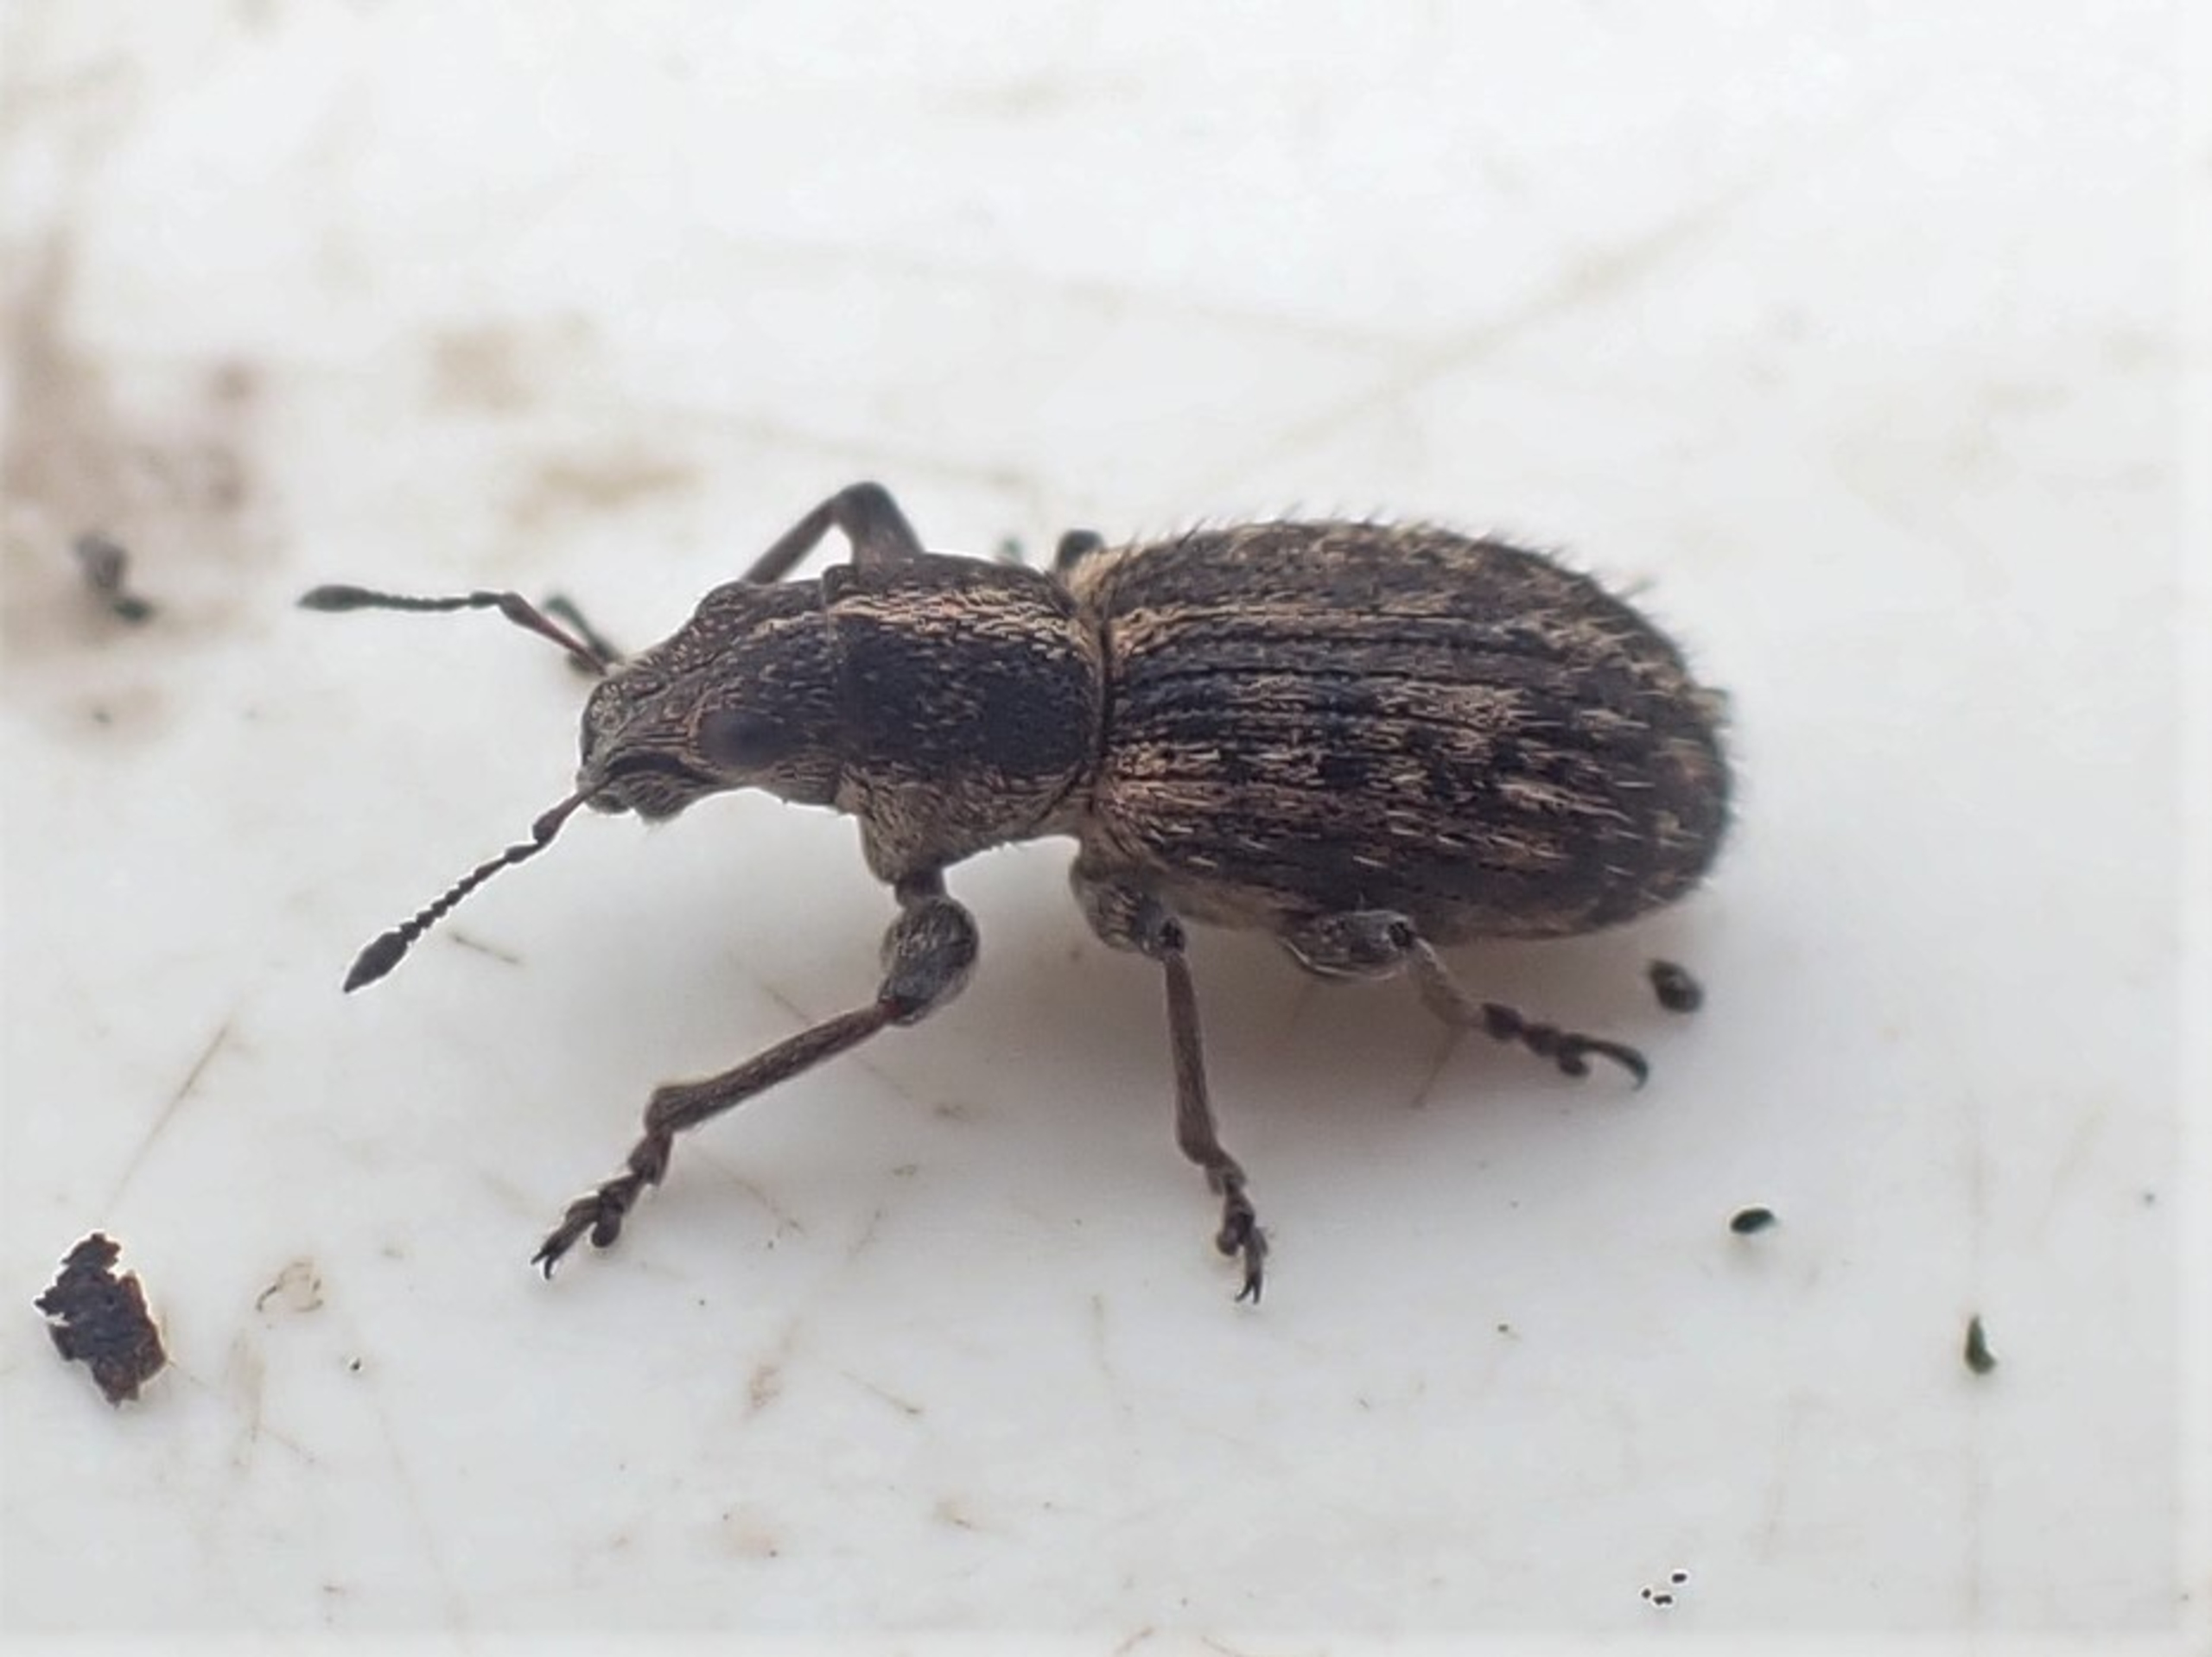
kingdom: Animalia
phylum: Arthropoda
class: Insecta
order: Coleoptera
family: Curculionidae
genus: Andrion
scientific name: Andrion regensteinense
